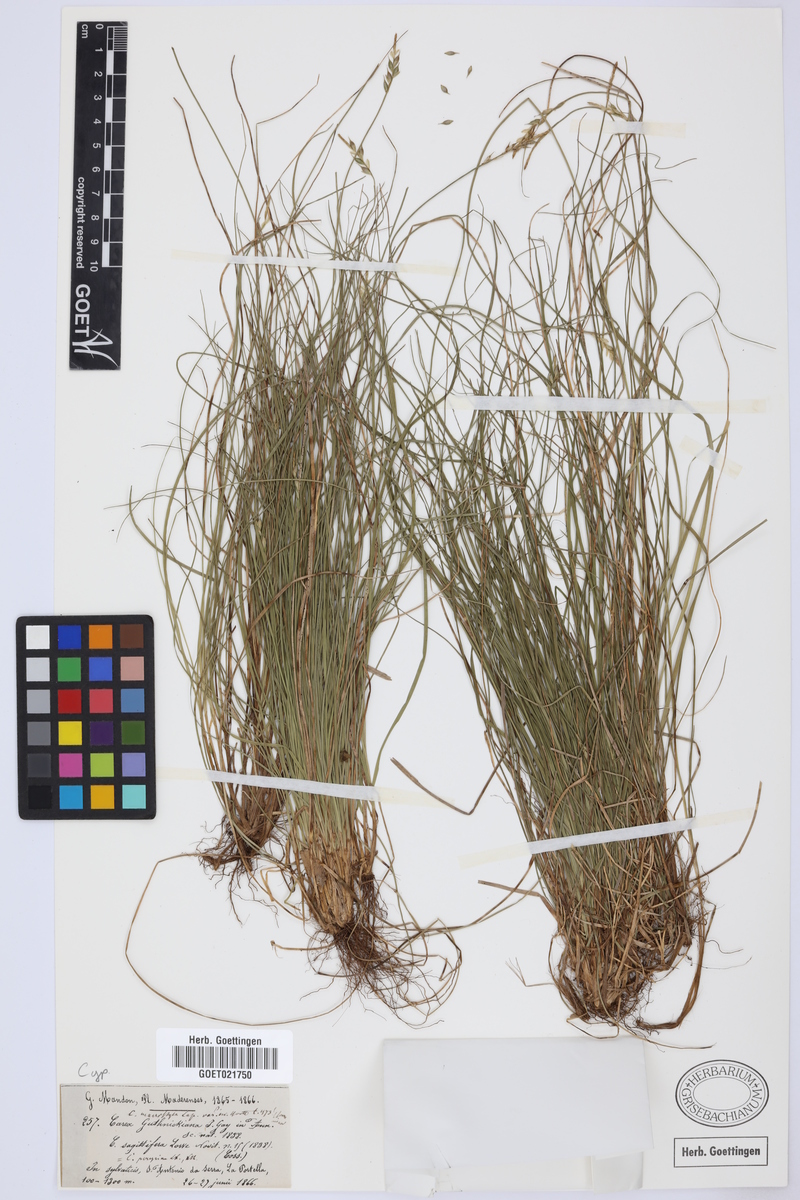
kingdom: Plantae
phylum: Tracheophyta
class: Liliopsida
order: Poales
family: Cyperaceae
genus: Carex
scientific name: Carex macrostyla
